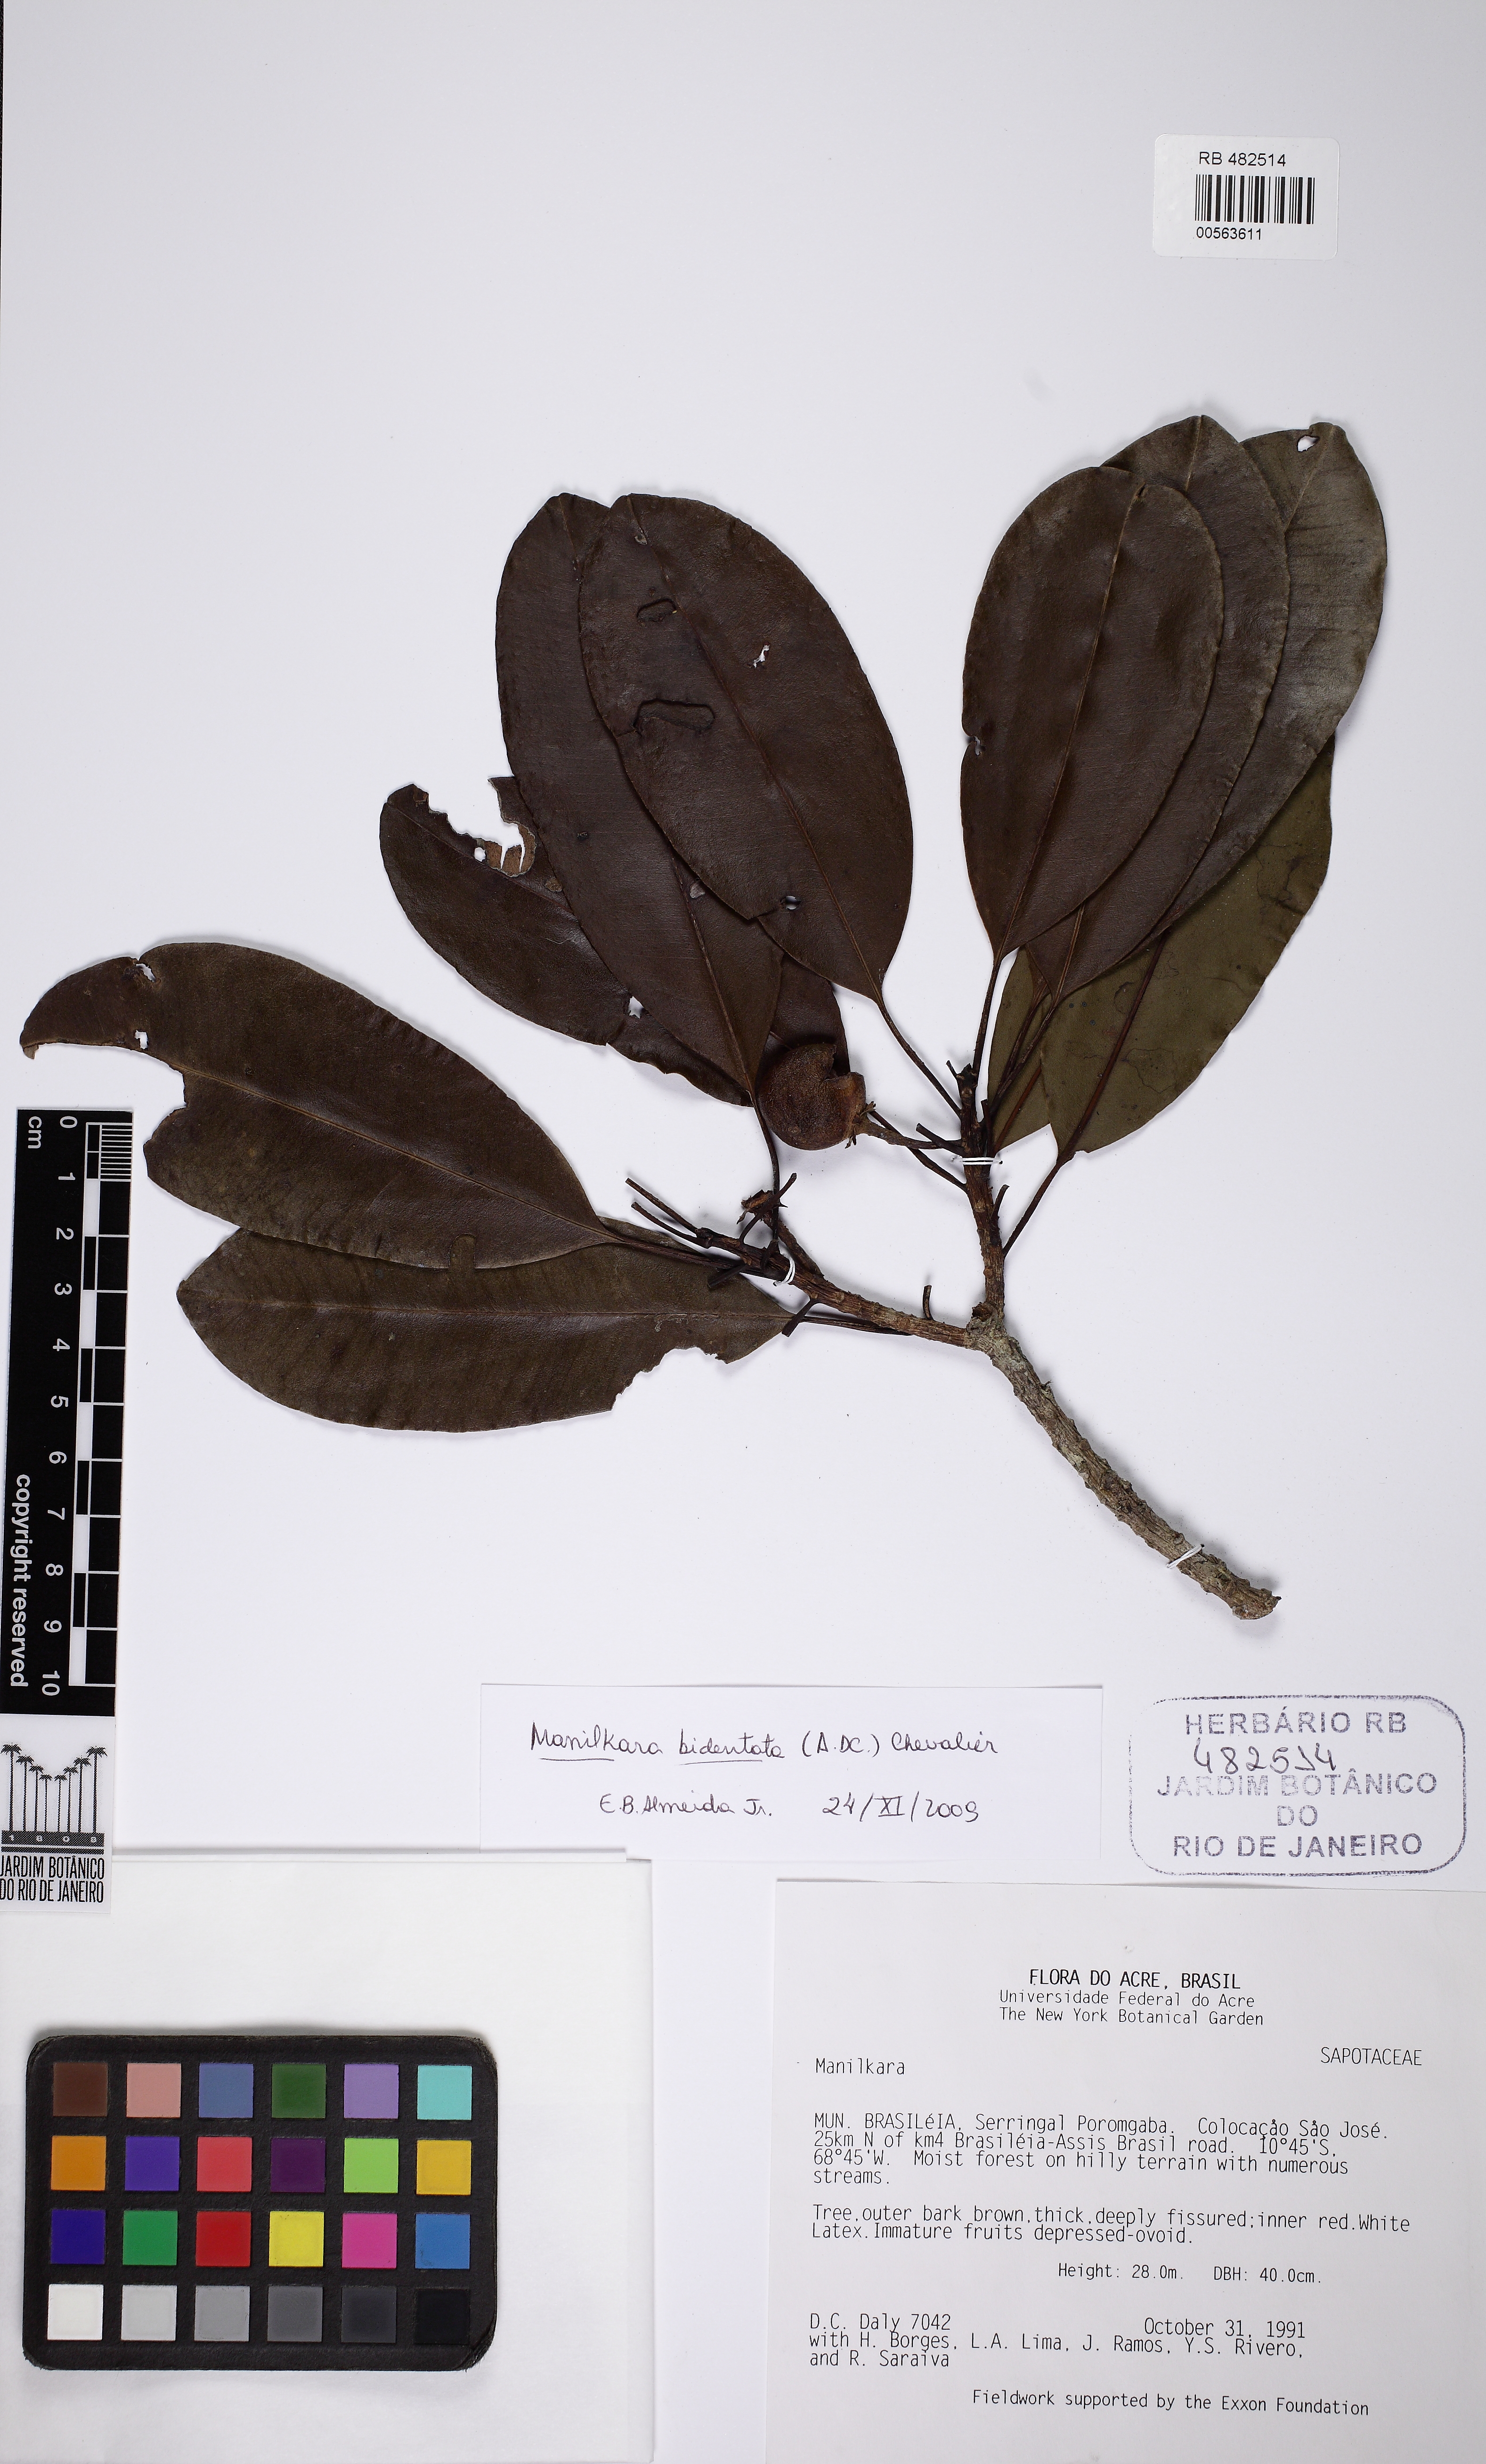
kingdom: Plantae
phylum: Tracheophyta
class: Magnoliopsida
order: Ericales
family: Sapotaceae
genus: Manilkara
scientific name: Manilkara bidentata
